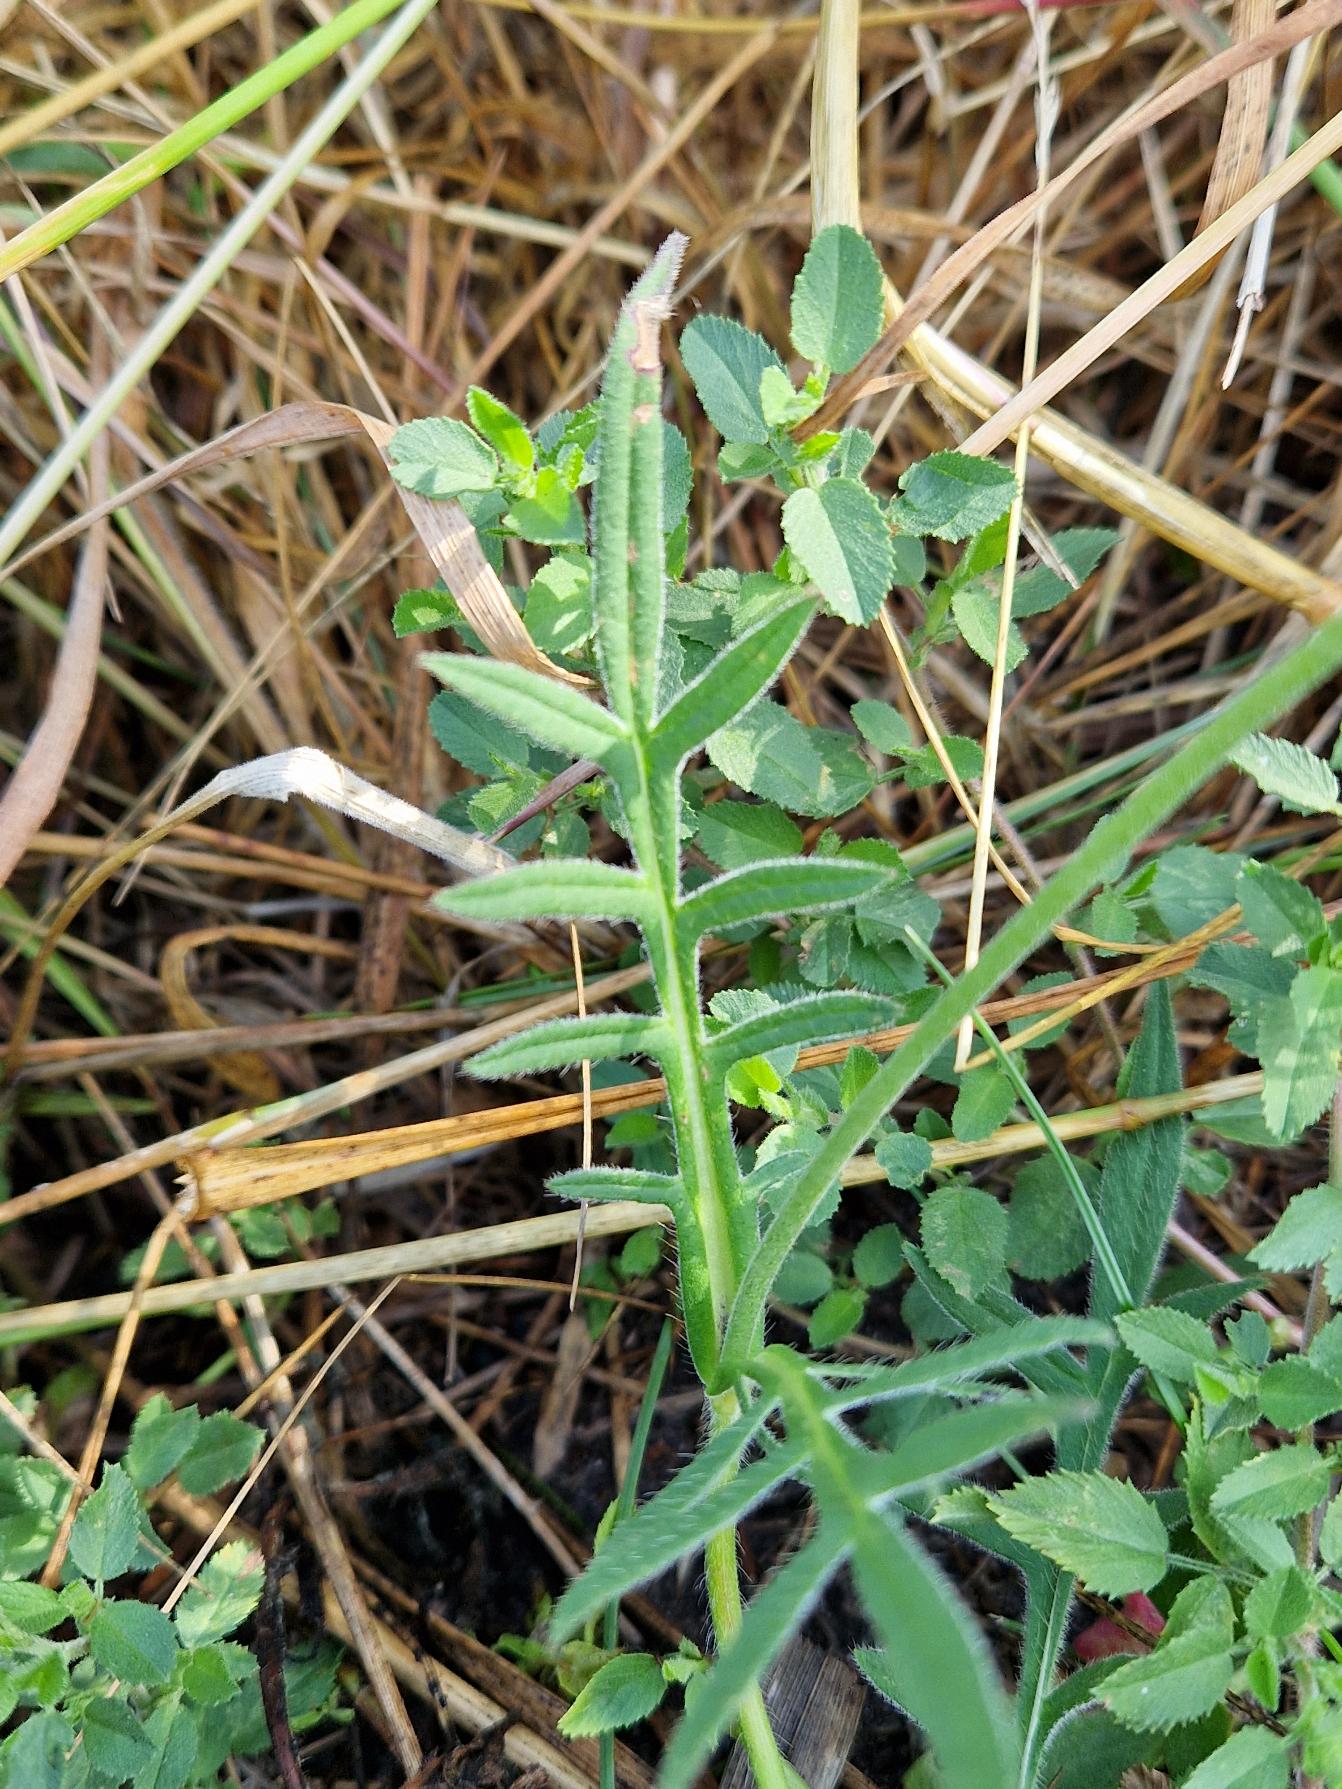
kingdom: Plantae
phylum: Tracheophyta
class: Magnoliopsida
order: Dipsacales
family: Caprifoliaceae
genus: Knautia
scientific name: Knautia arvensis
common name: Blåhat
